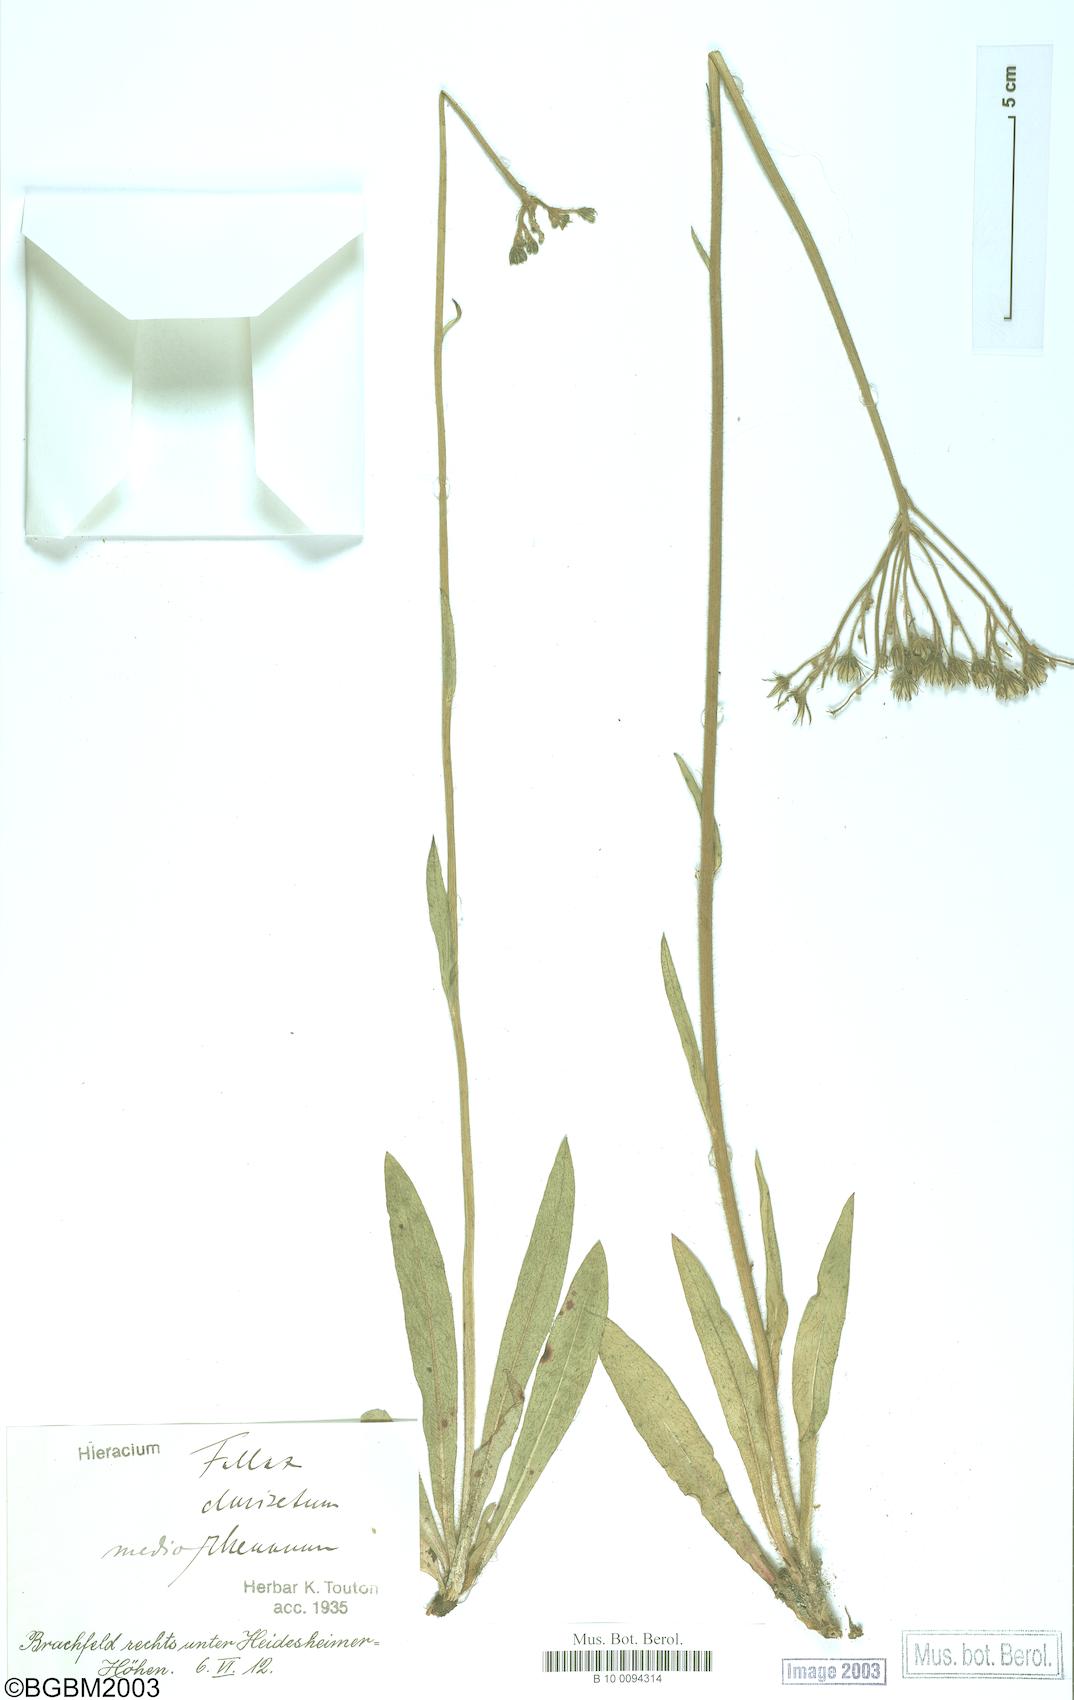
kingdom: Plantae
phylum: Tracheophyta
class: Magnoliopsida
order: Asterales
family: Asteraceae
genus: Hieracium
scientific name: Hieracium fallax
